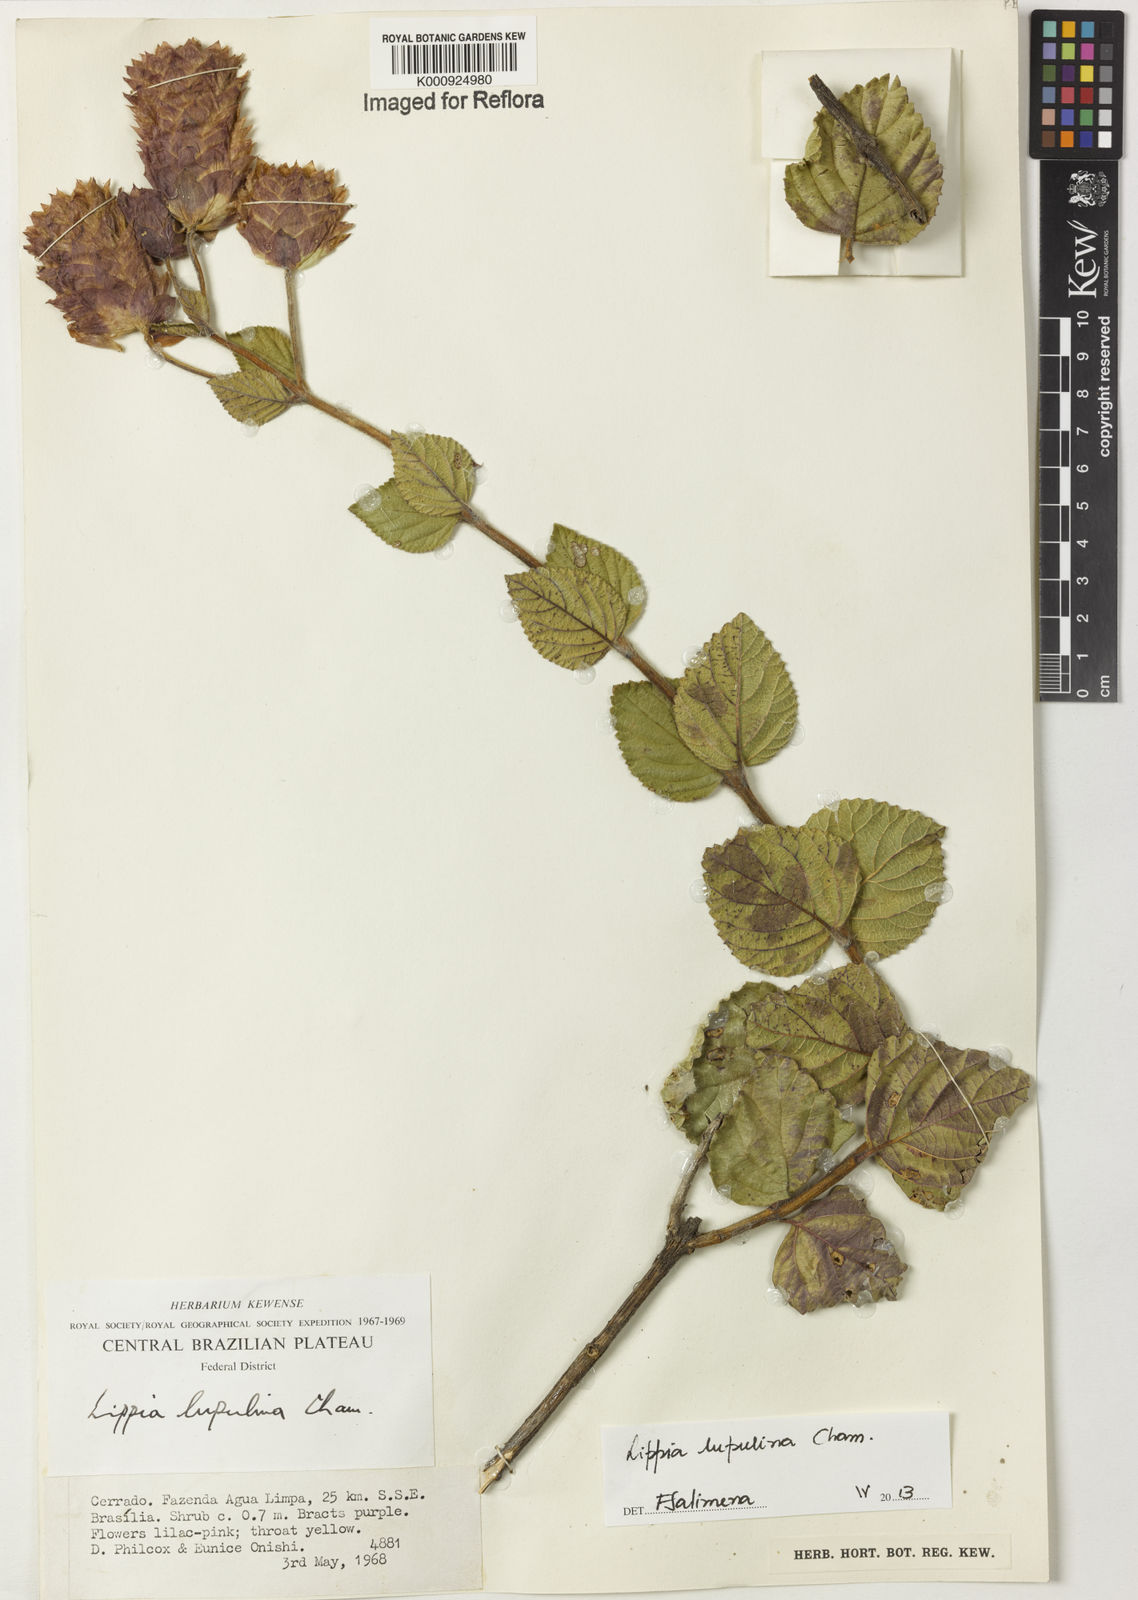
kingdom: Plantae
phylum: Tracheophyta
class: Magnoliopsida
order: Lamiales
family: Verbenaceae
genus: Lippia
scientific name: Lippia lupulina
